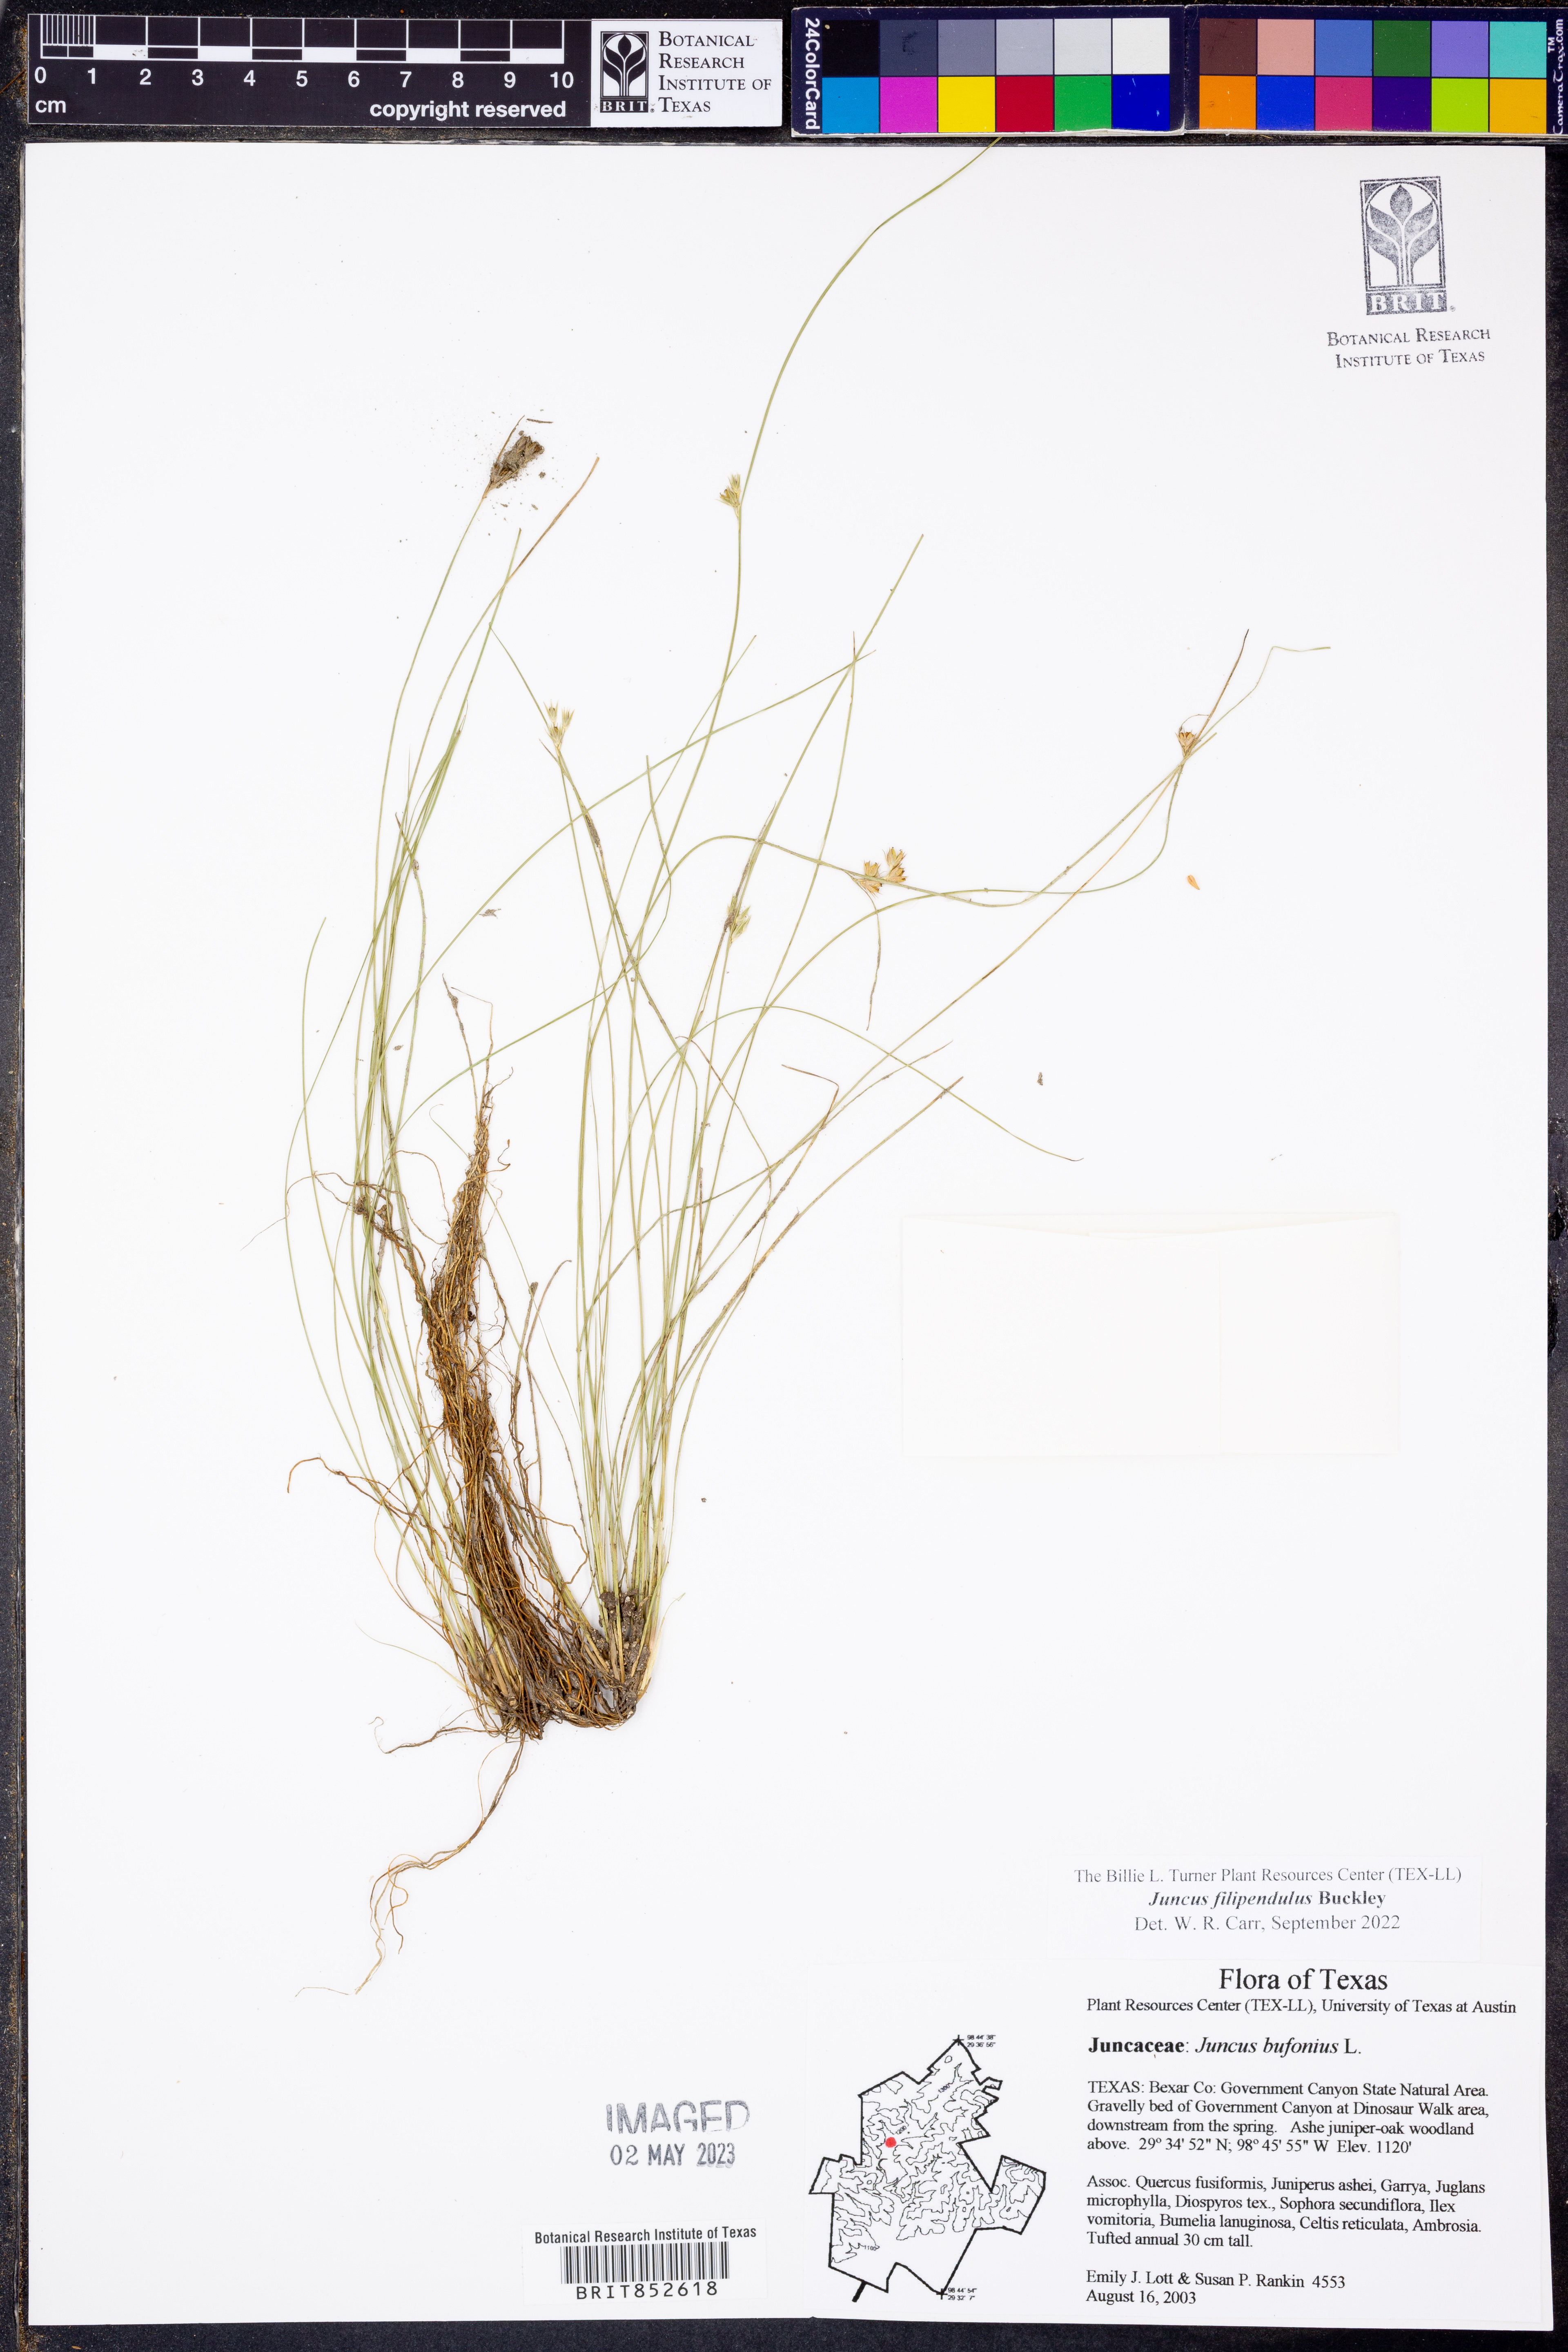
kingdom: Plantae
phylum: Tracheophyta
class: Liliopsida
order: Poales
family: Juncaceae
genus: Juncus
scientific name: Juncus filipendulus
